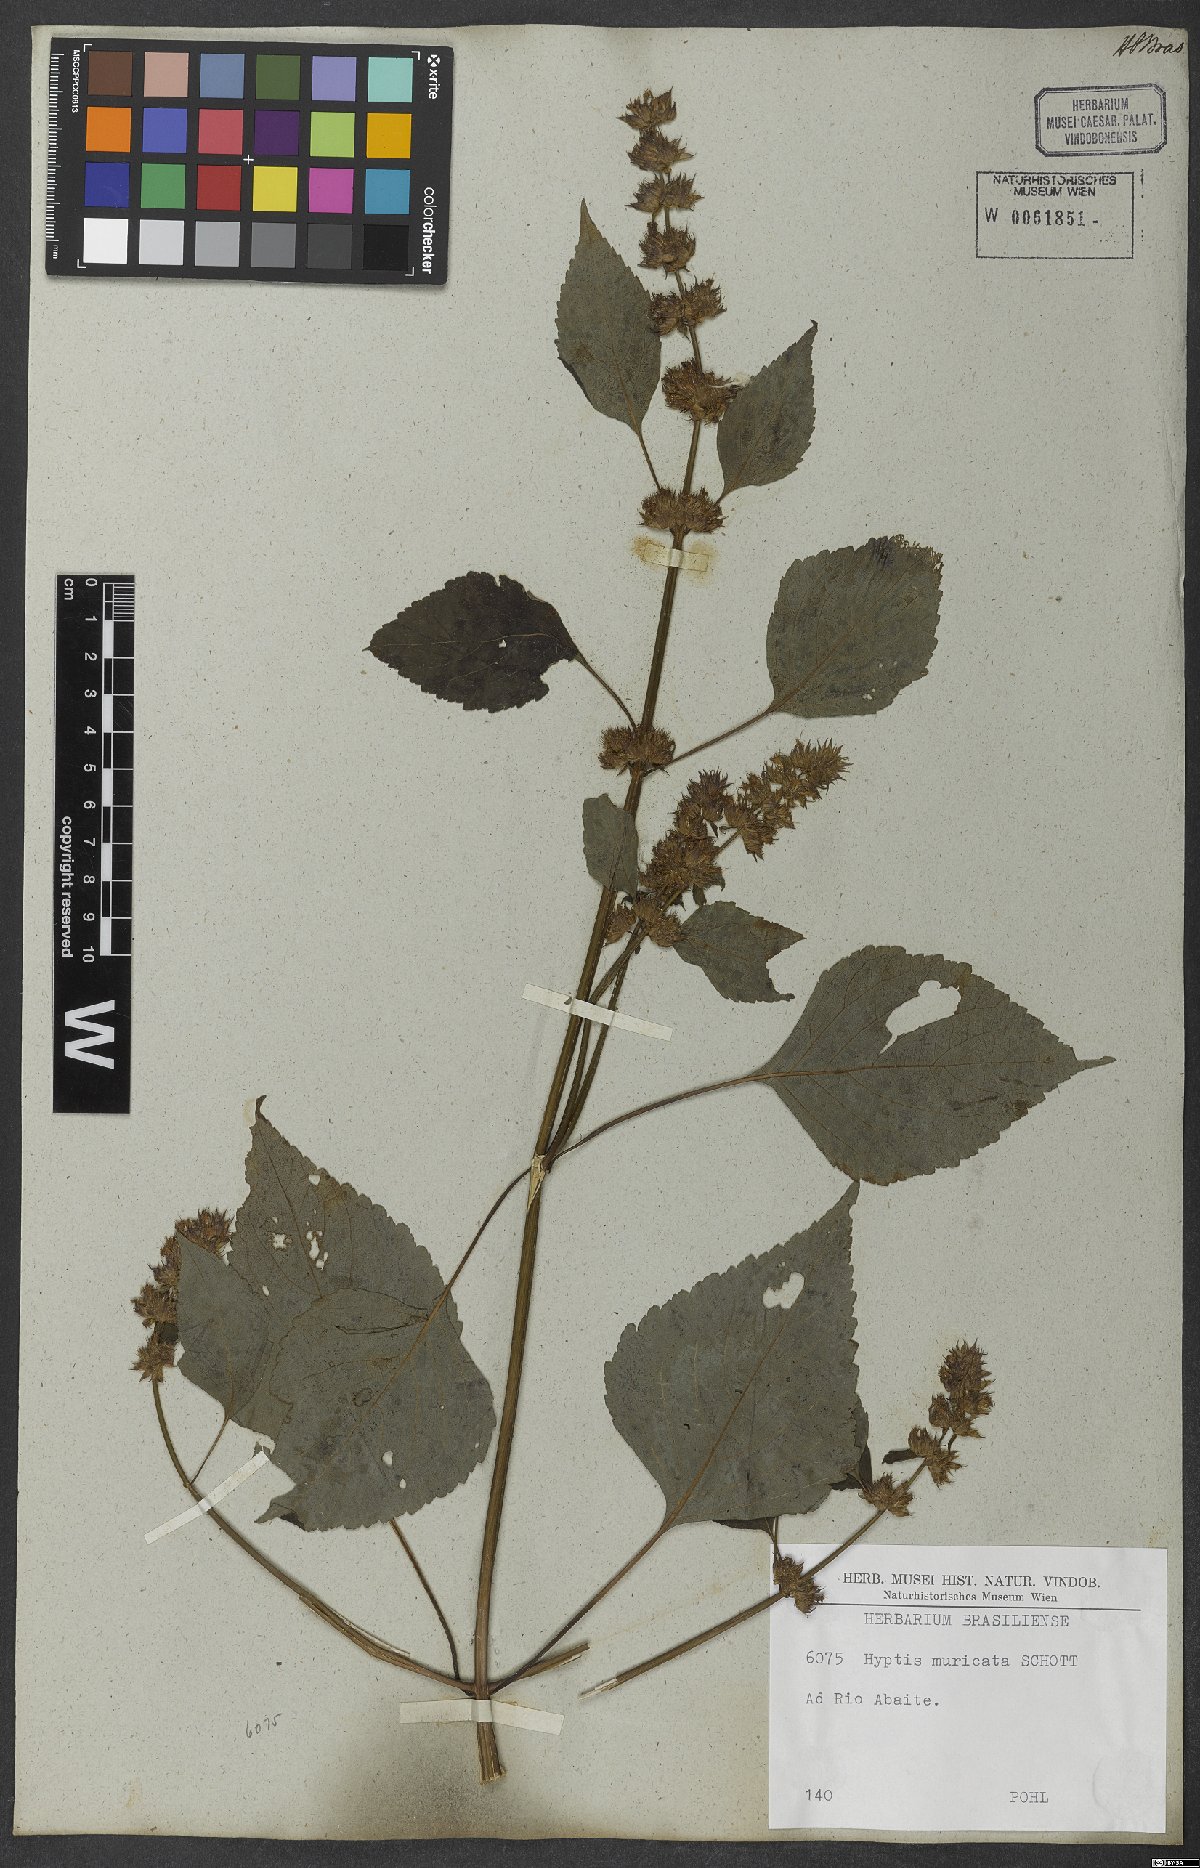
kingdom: Plantae
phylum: Tracheophyta
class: Magnoliopsida
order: Lamiales
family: Lamiaceae
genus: Cantinoa
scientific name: Cantinoa muricata
